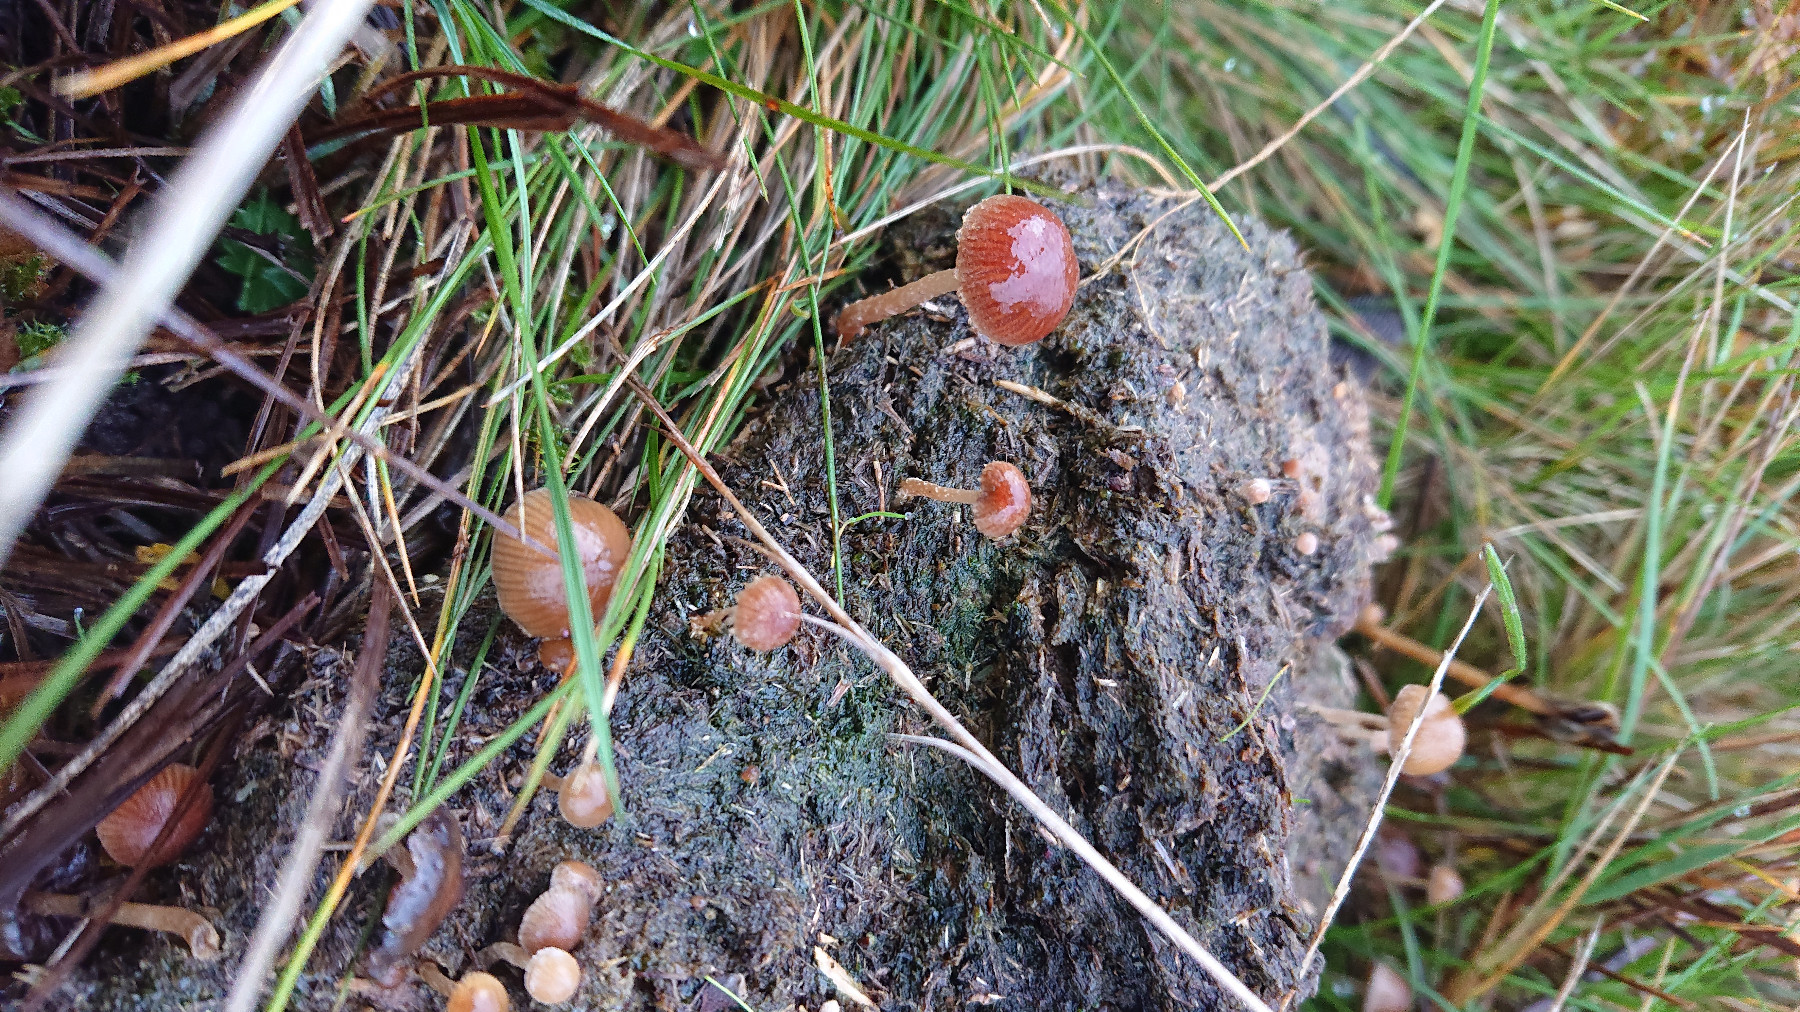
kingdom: Fungi
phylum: Basidiomycota
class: Agaricomycetes
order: Agaricales
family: Psathyrellaceae
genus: Psathyrella
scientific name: Psathyrella
